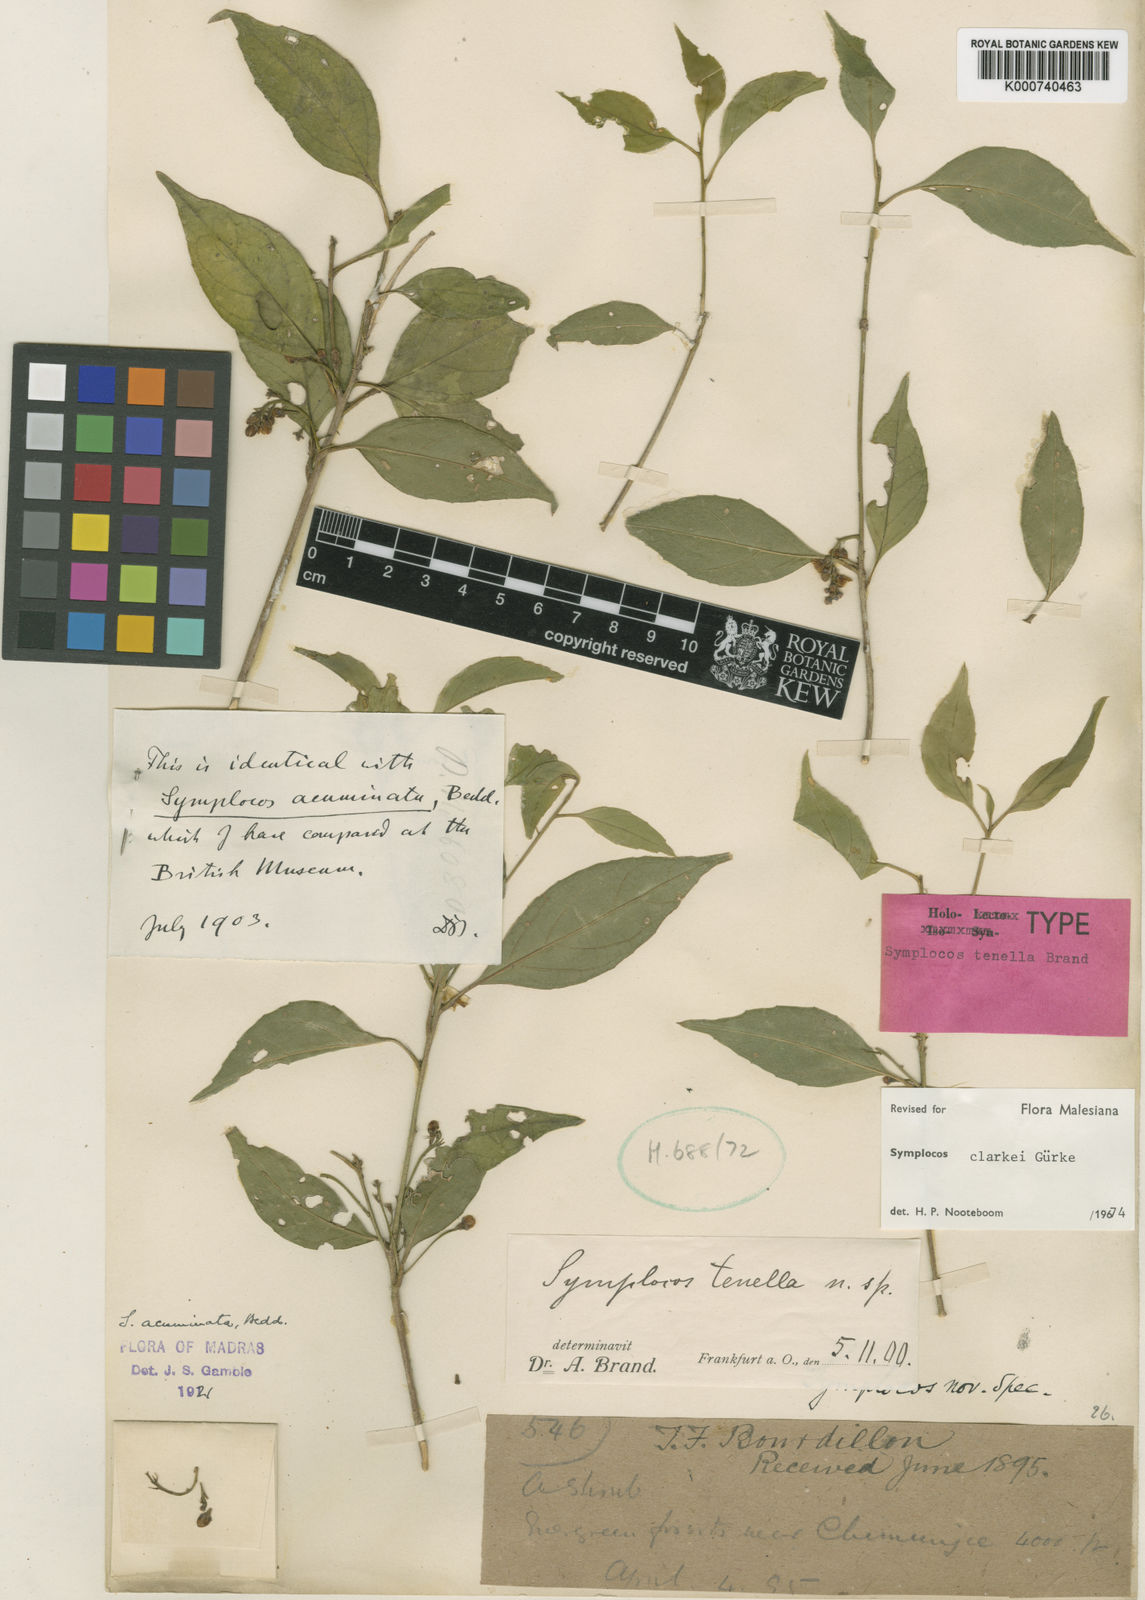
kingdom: Plantae
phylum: Tracheophyta
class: Magnoliopsida
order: Ericales
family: Symplocaceae
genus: Symplocos
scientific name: Symplocos wynadense
